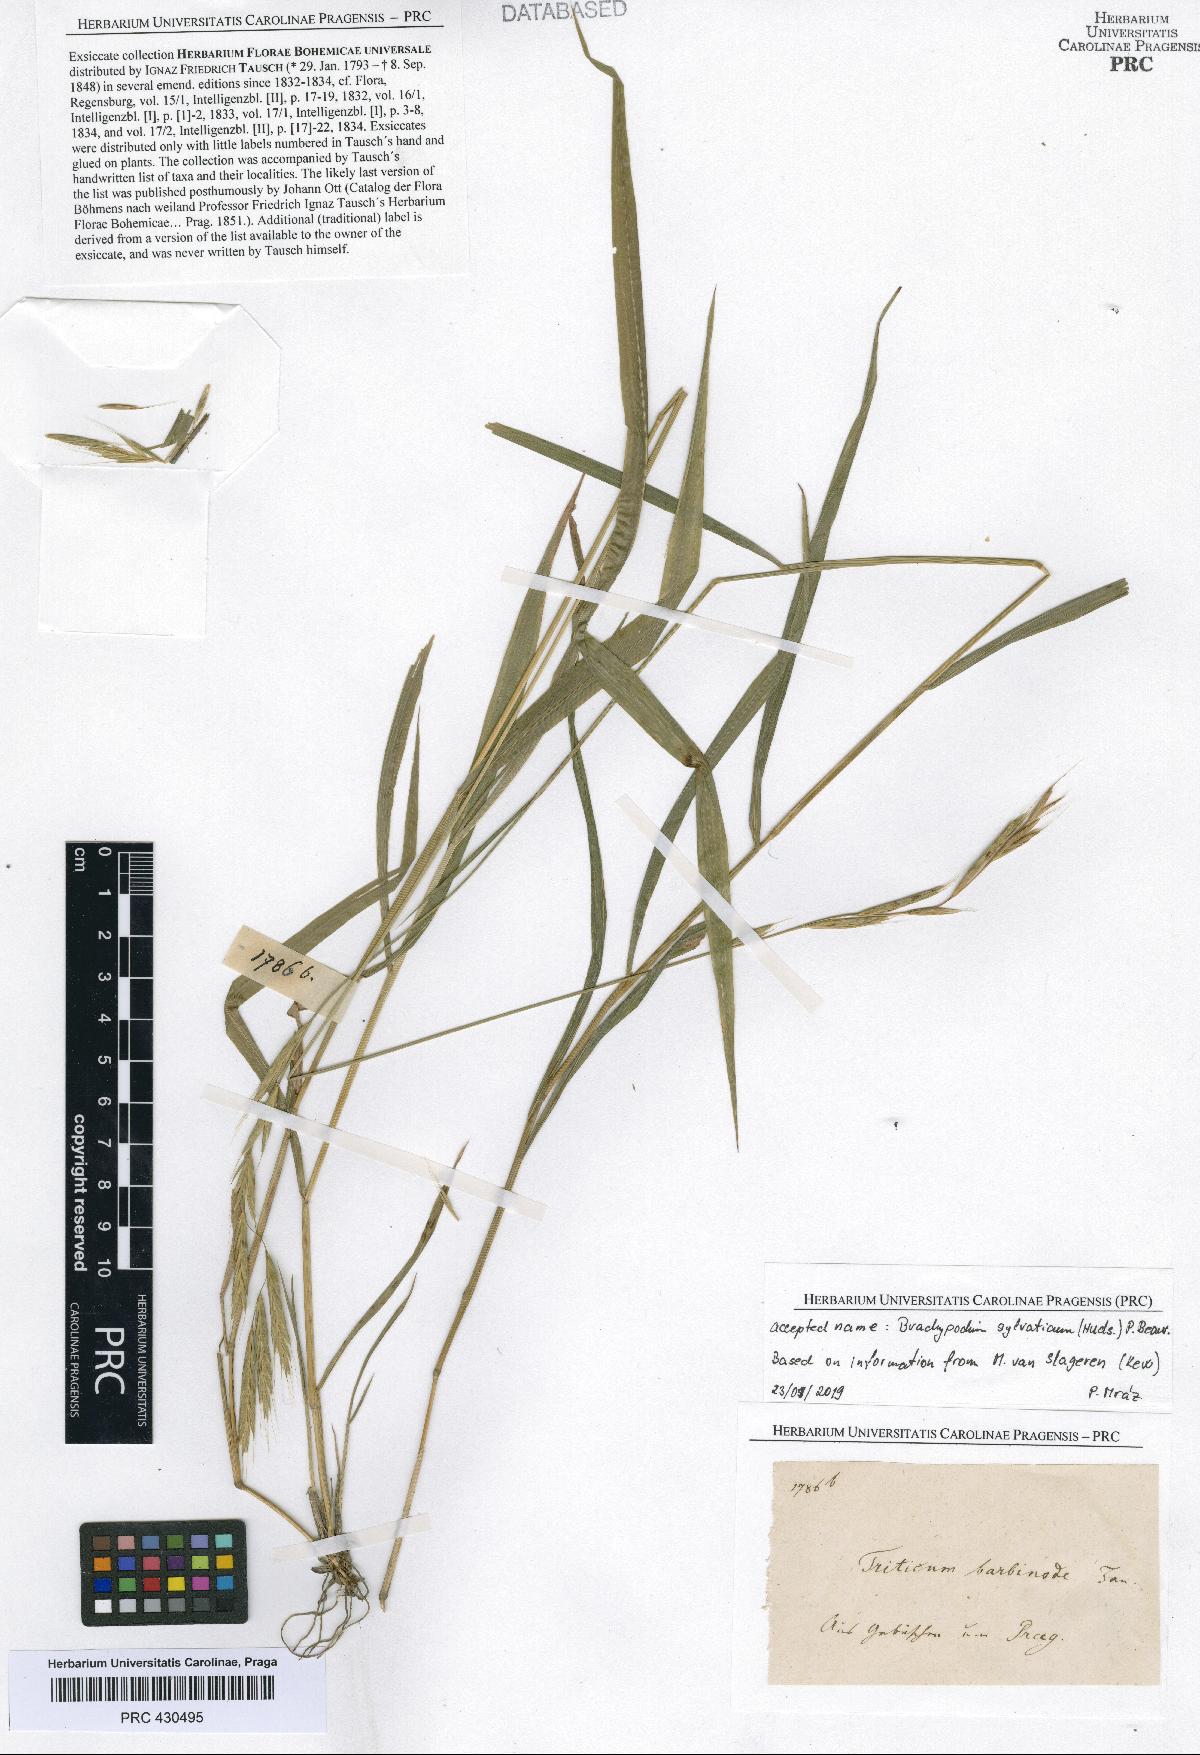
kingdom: Plantae
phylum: Tracheophyta
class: Liliopsida
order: Poales
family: Poaceae
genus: Brachypodium
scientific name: Brachypodium sylvaticum
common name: False-brome
